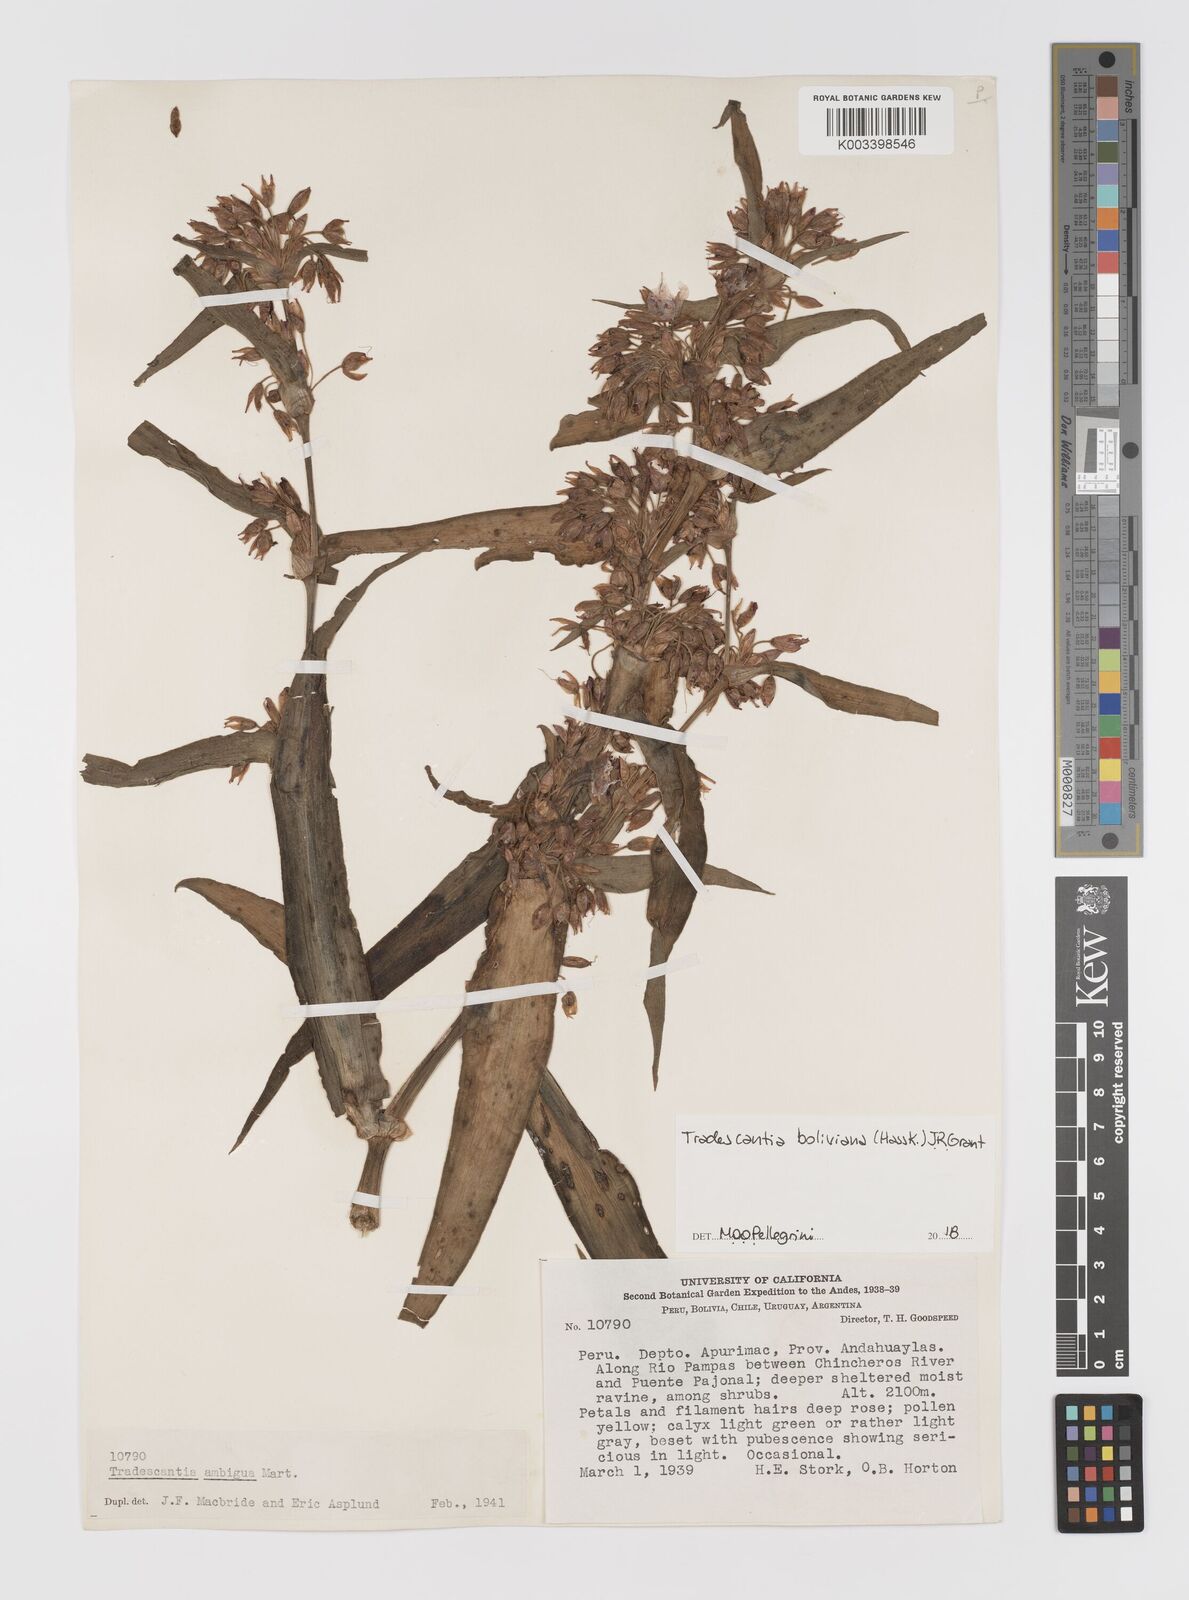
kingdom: Plantae
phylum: Tracheophyta
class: Liliopsida
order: Commelinales
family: Commelinaceae
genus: Tradescantia
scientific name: Tradescantia boliviana
